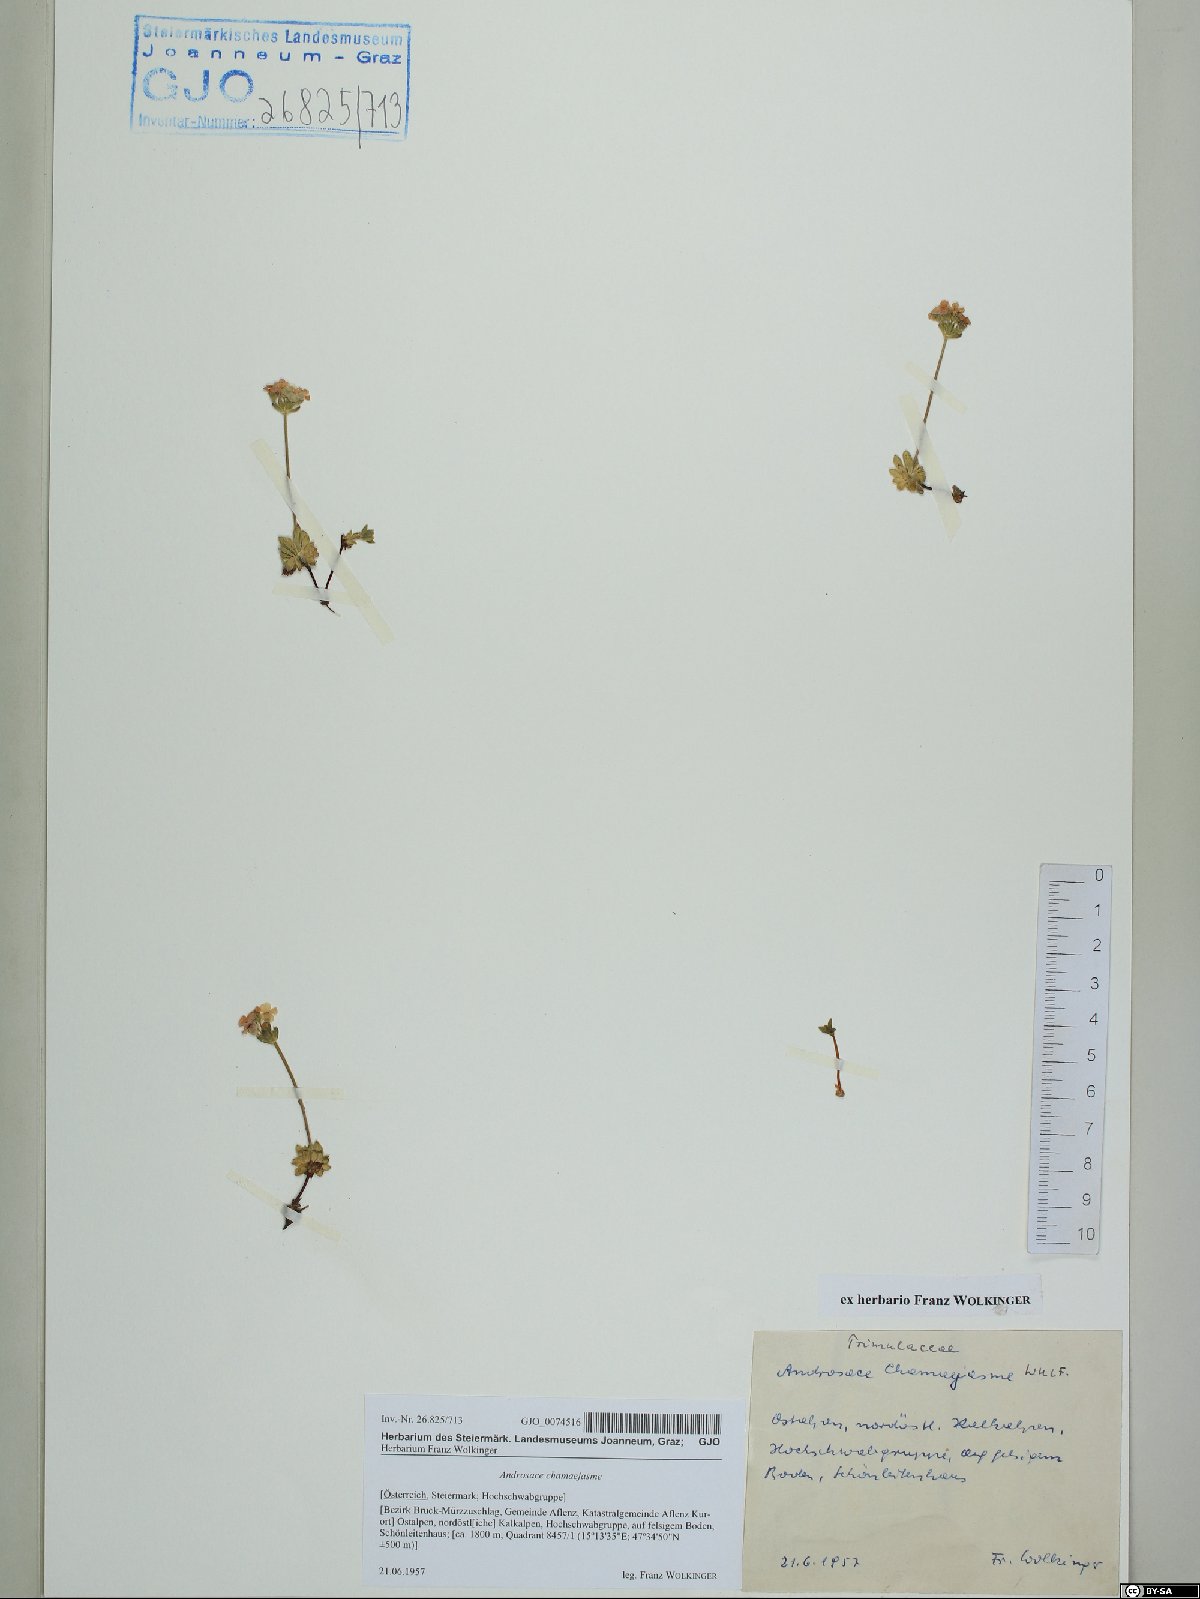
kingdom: Plantae
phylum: Tracheophyta
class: Magnoliopsida
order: Ericales
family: Primulaceae
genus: Androsace
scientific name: Androsace chamaejasme
